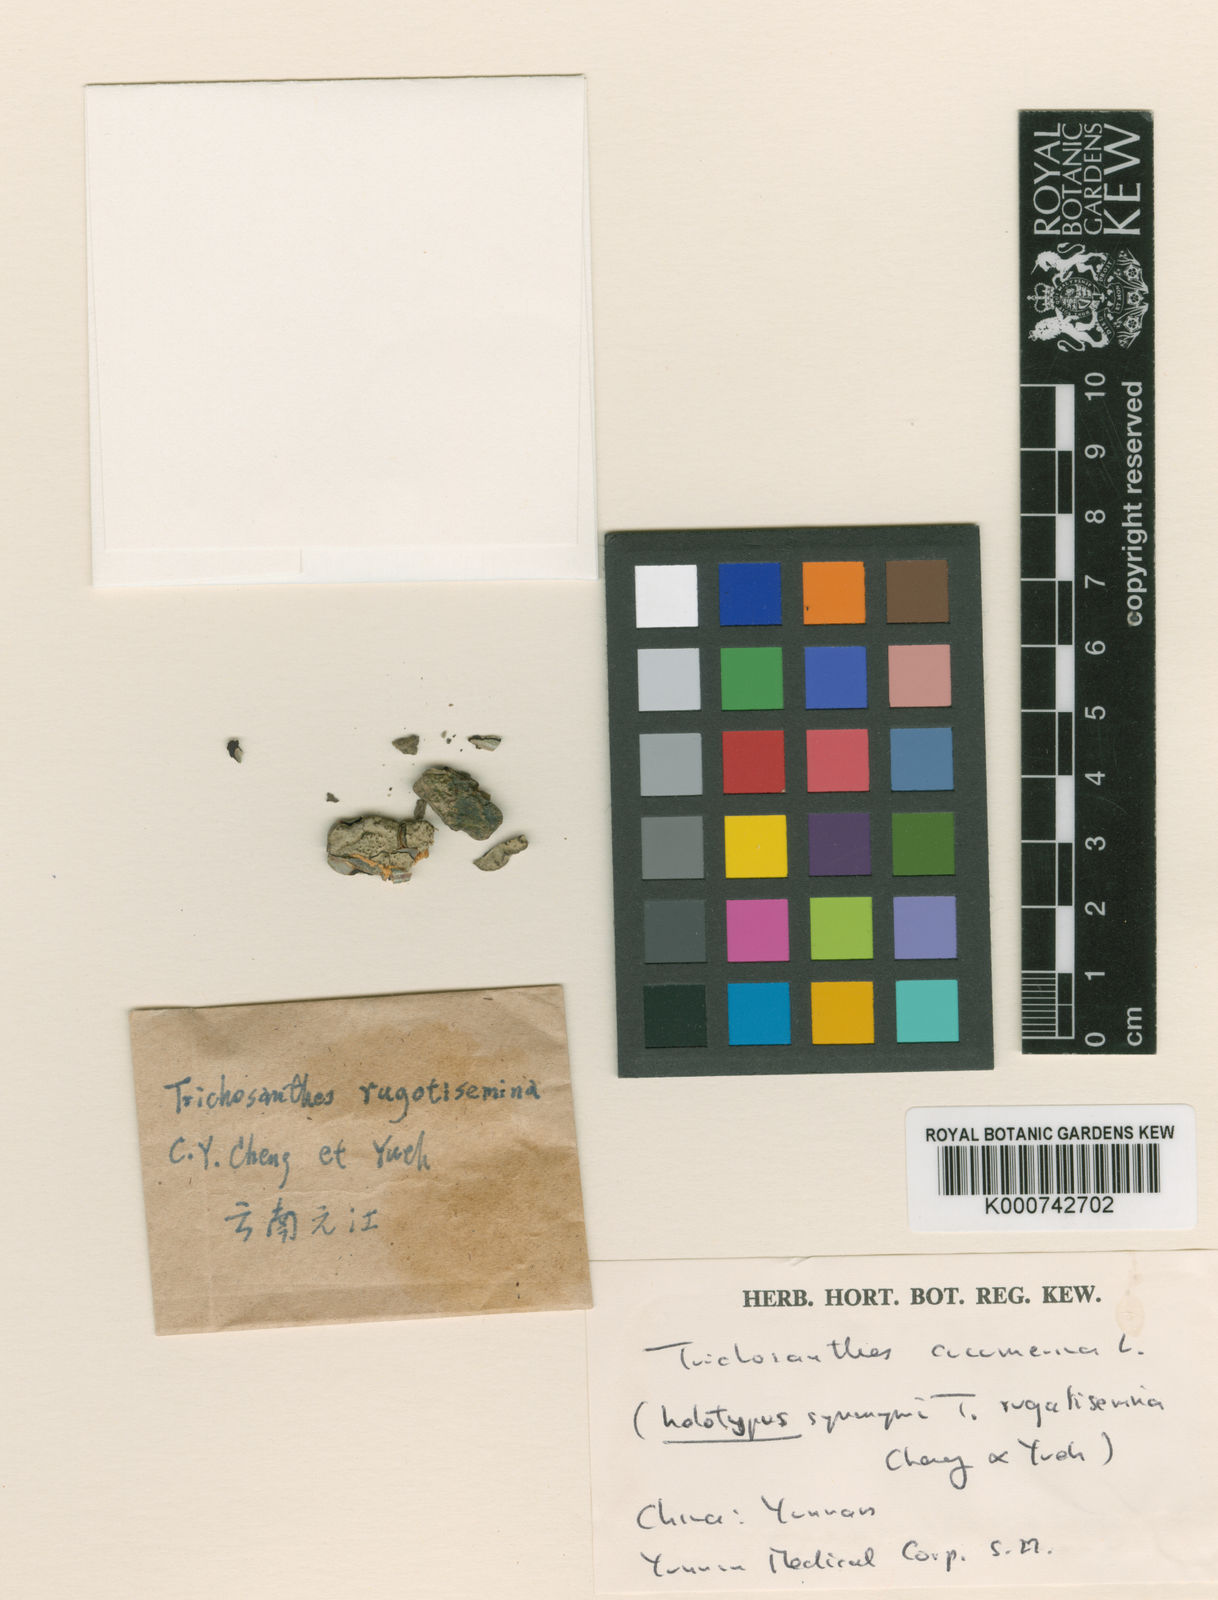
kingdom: Plantae
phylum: Tracheophyta
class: Magnoliopsida
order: Cucurbitales
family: Cucurbitaceae
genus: Trichosanthes
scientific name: Trichosanthes cucumerina
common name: Snakegourd
